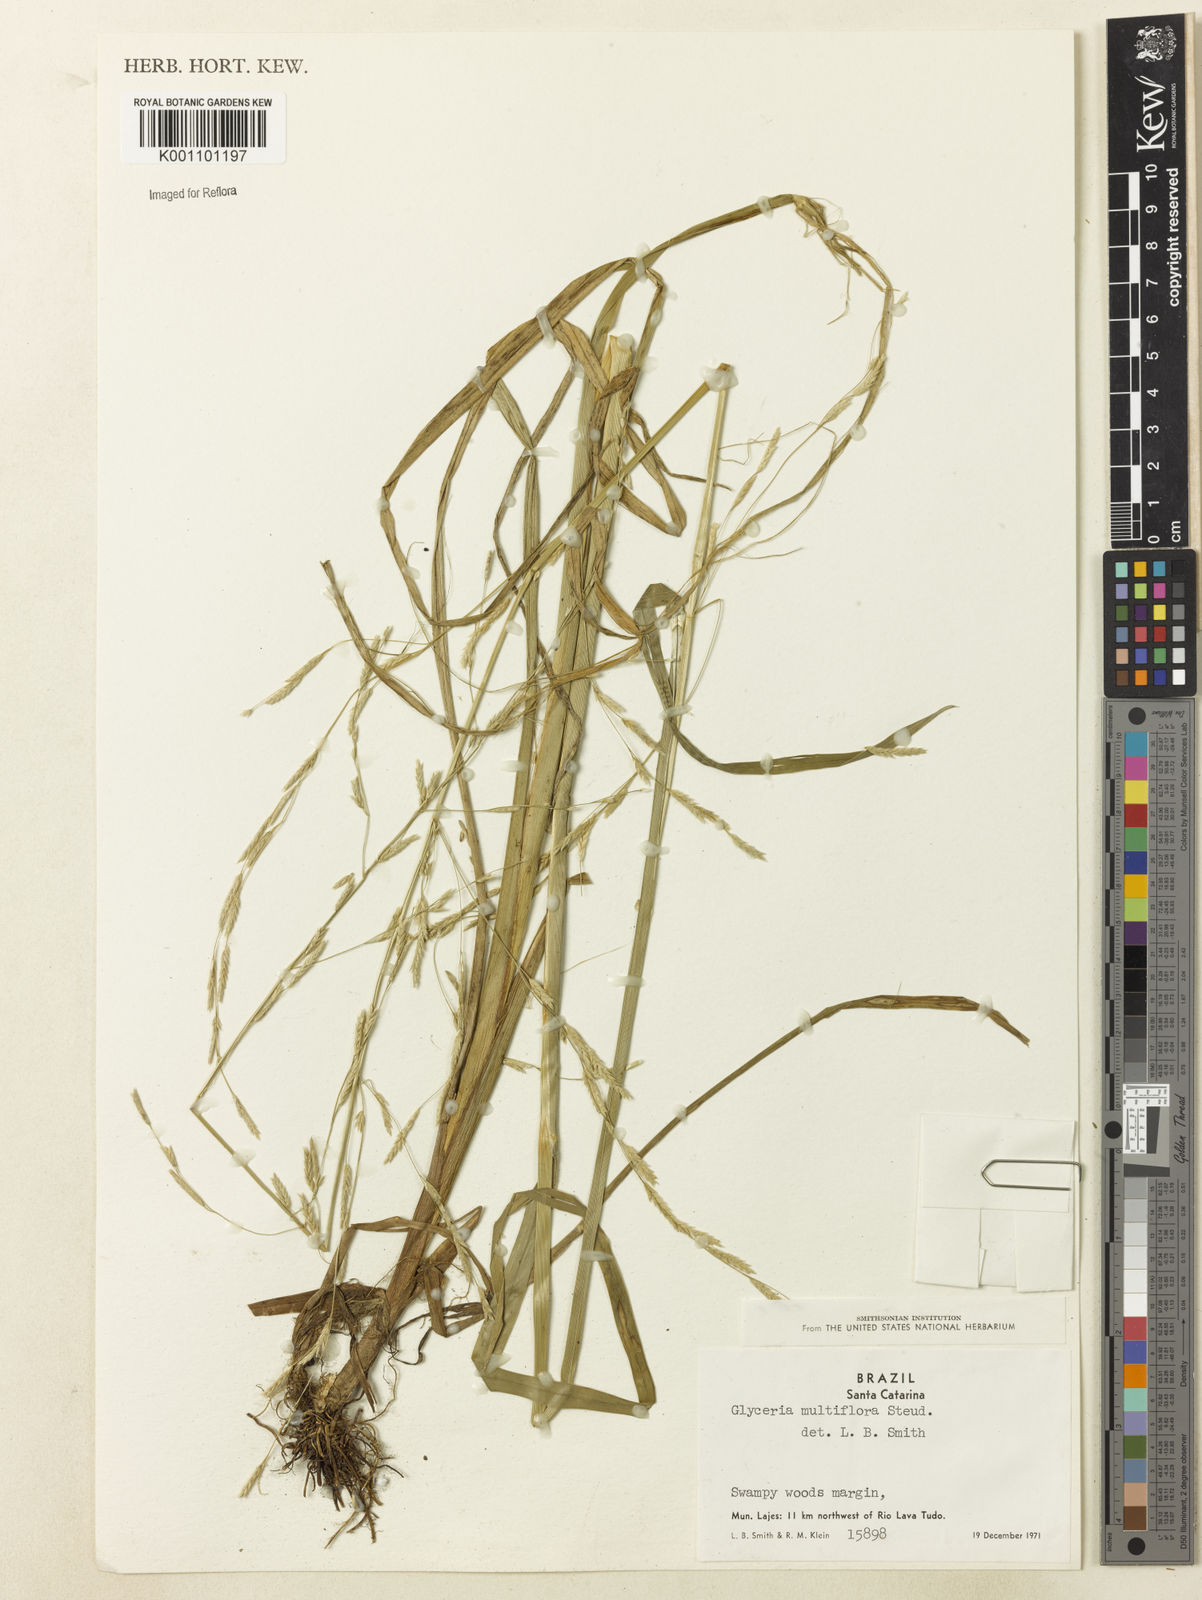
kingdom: Plantae
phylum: Tracheophyta
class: Liliopsida
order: Poales
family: Poaceae
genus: Glyceria
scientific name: Glyceria multiflora
